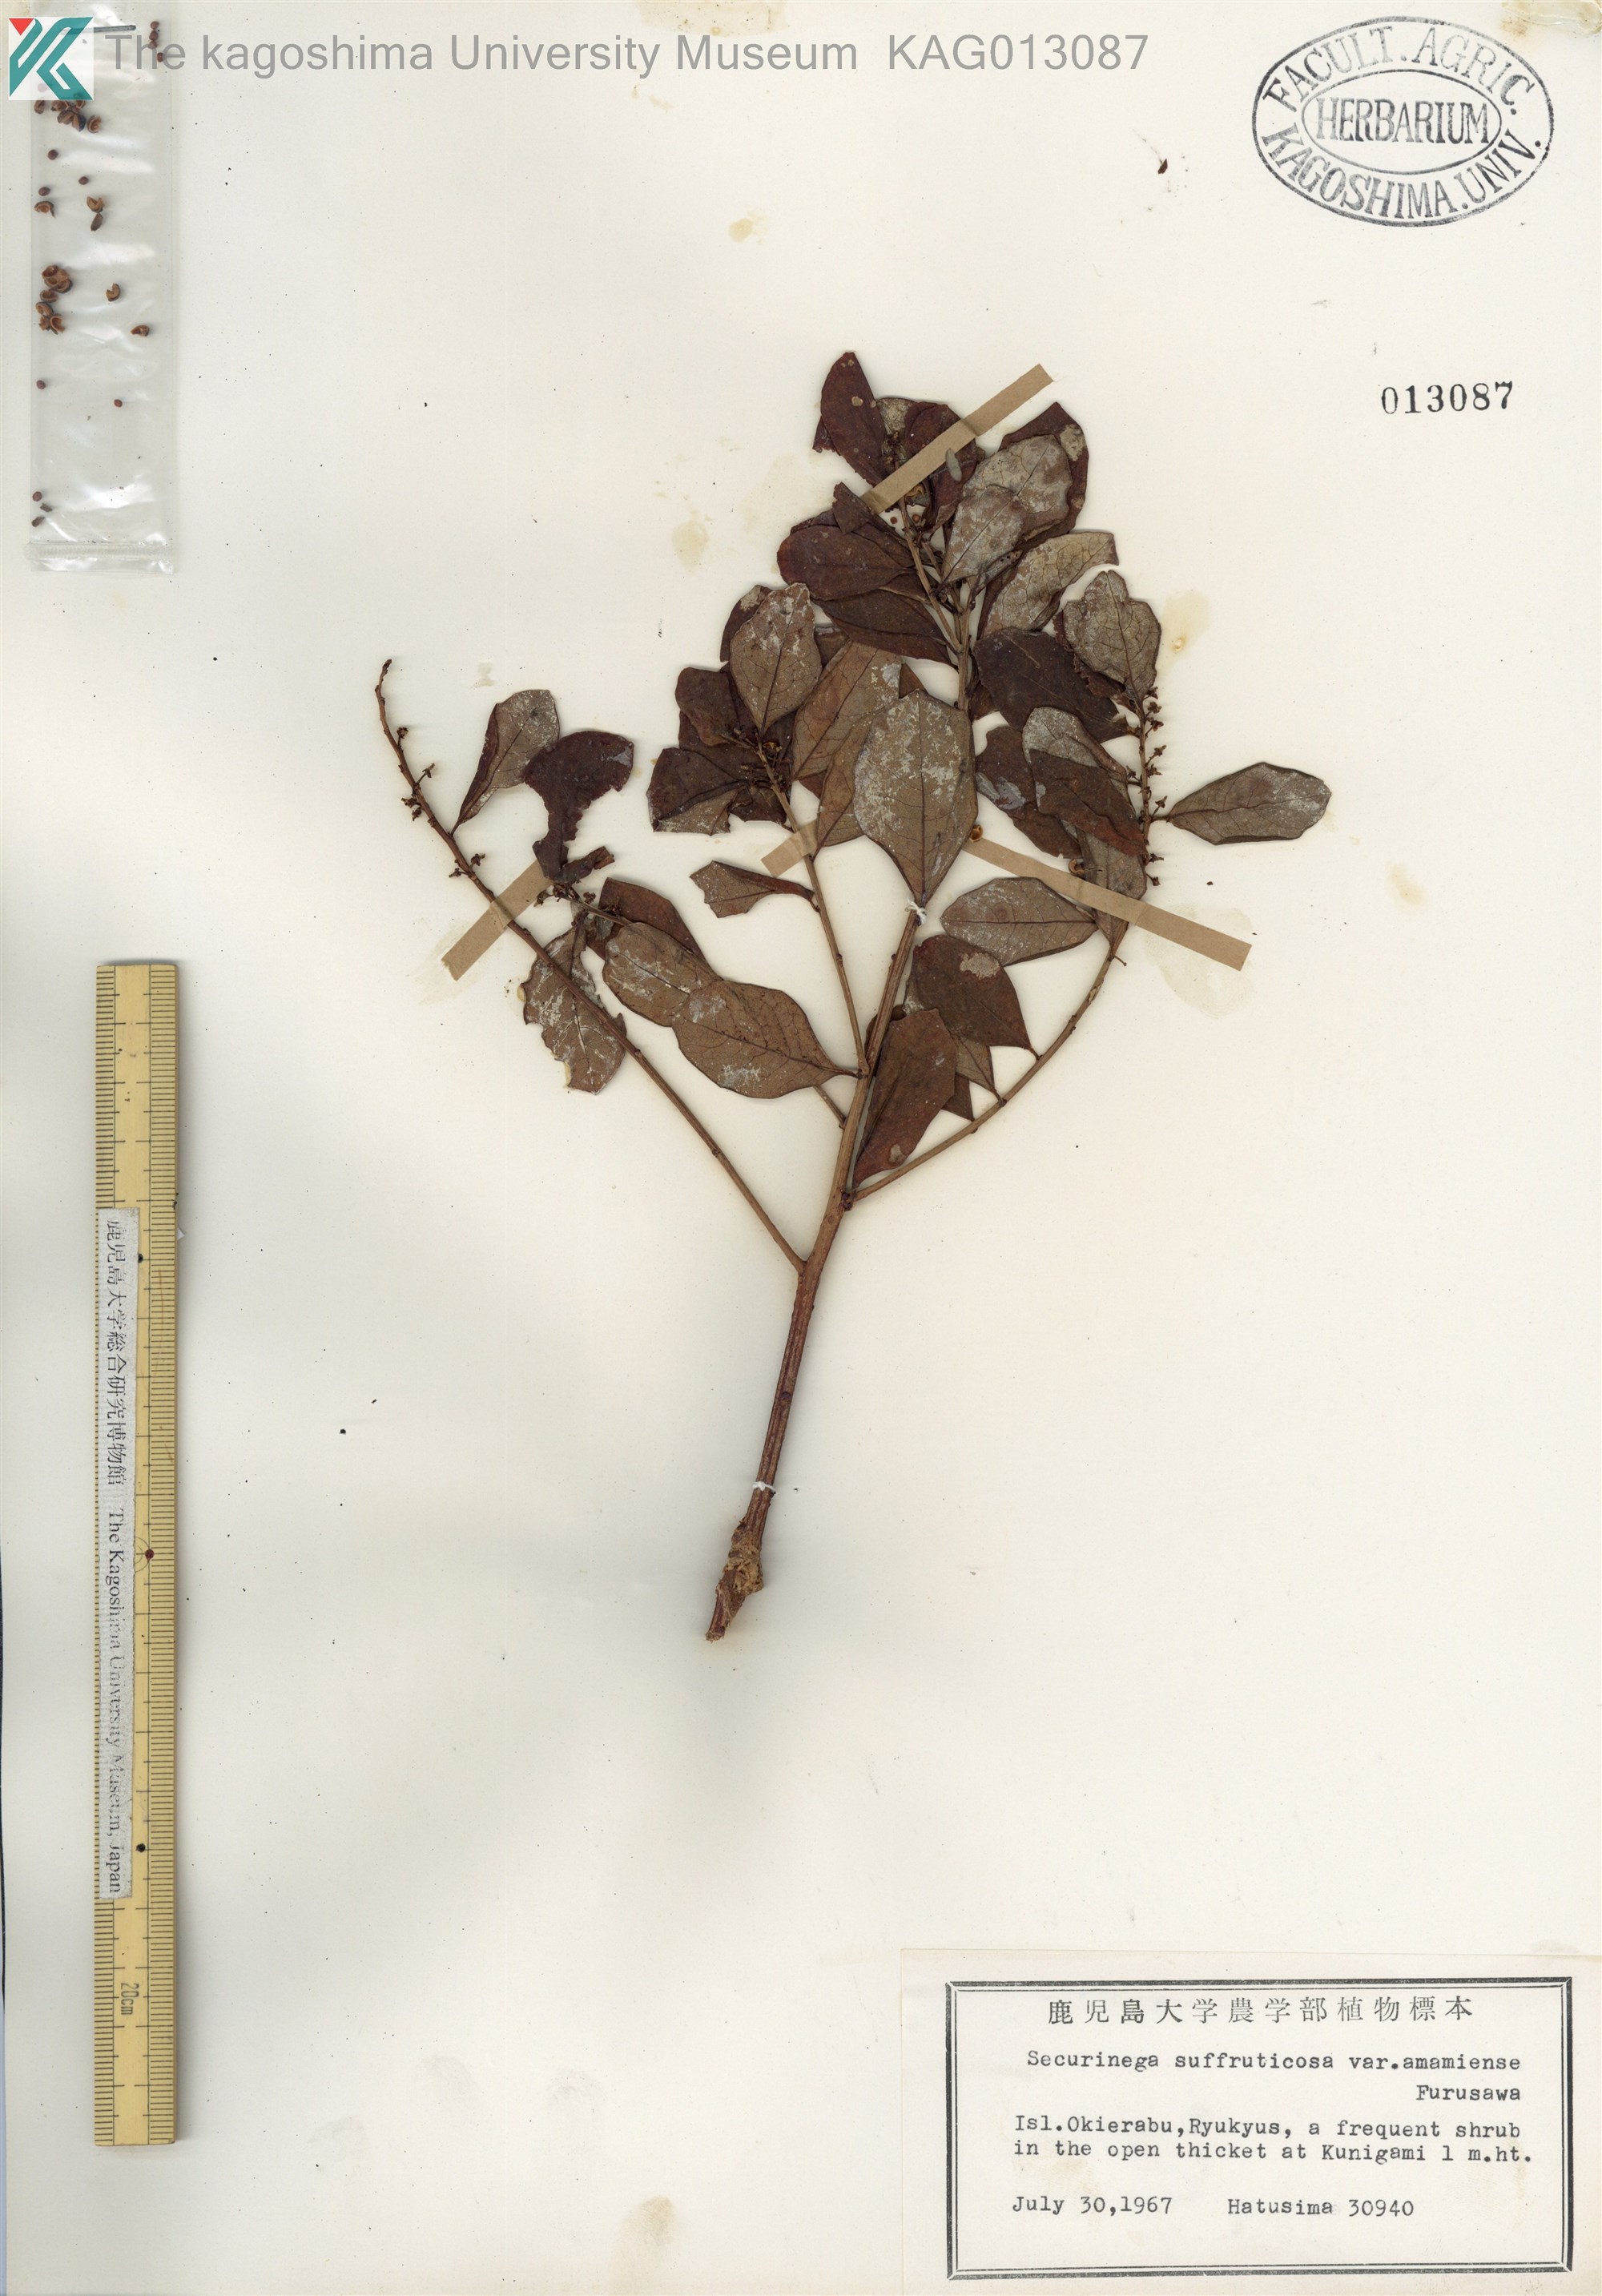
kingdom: Plantae
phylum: Tracheophyta
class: Magnoliopsida
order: Malpighiales
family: Phyllanthaceae
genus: Flueggea
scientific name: Flueggea suffruticosa
